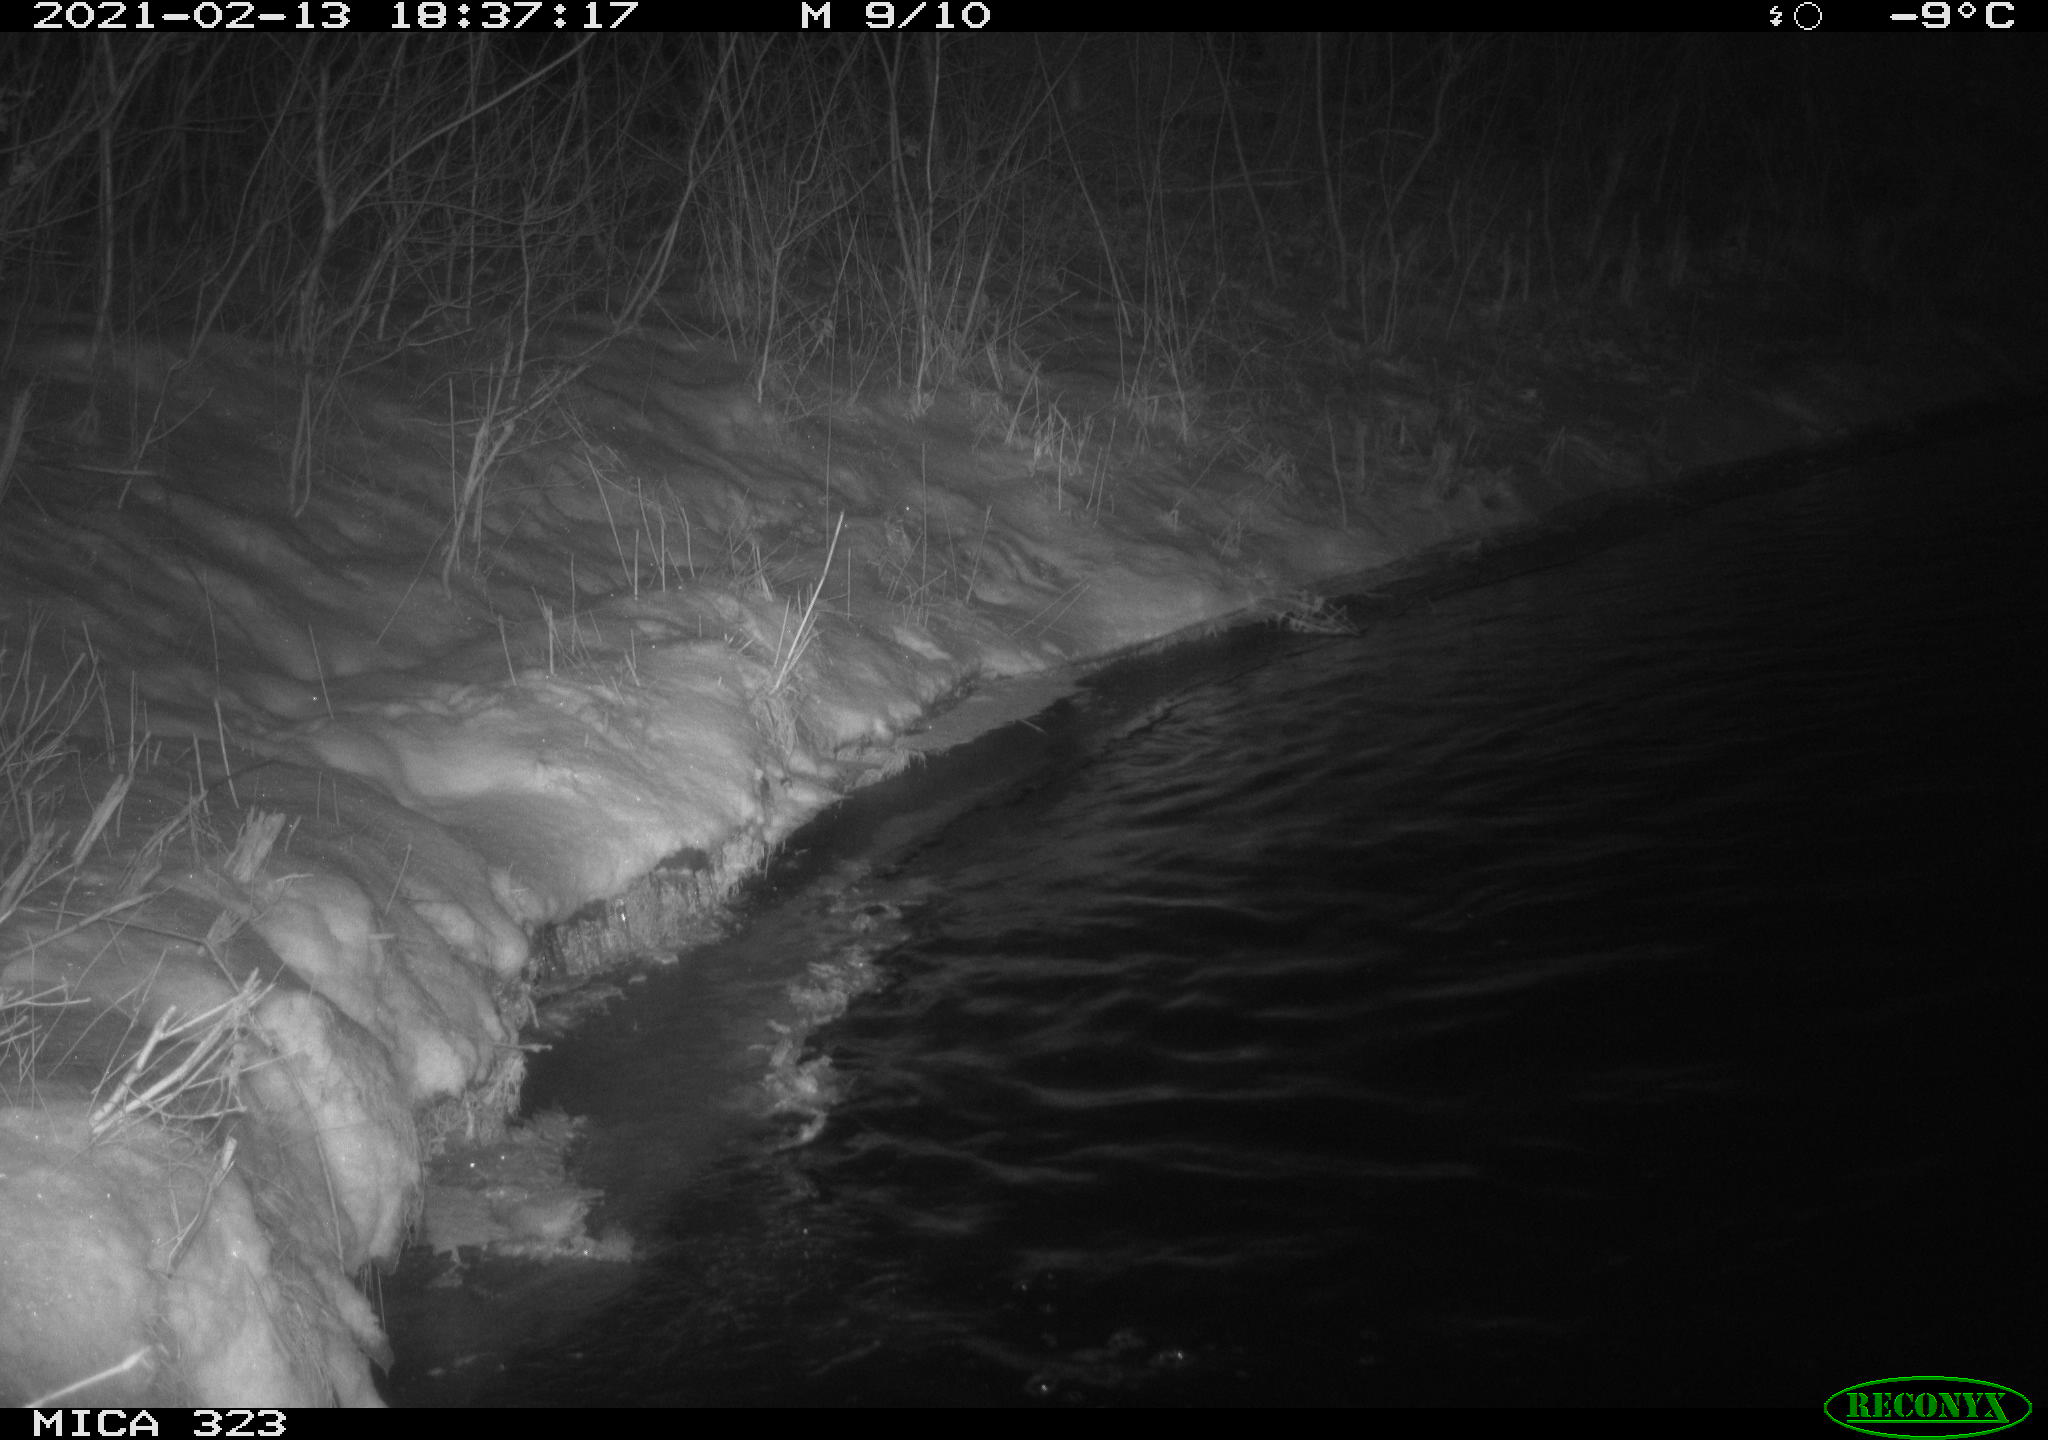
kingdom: Animalia
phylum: Chordata
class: Aves
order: Anseriformes
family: Anatidae
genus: Anas
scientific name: Anas platyrhynchos
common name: Mallard
